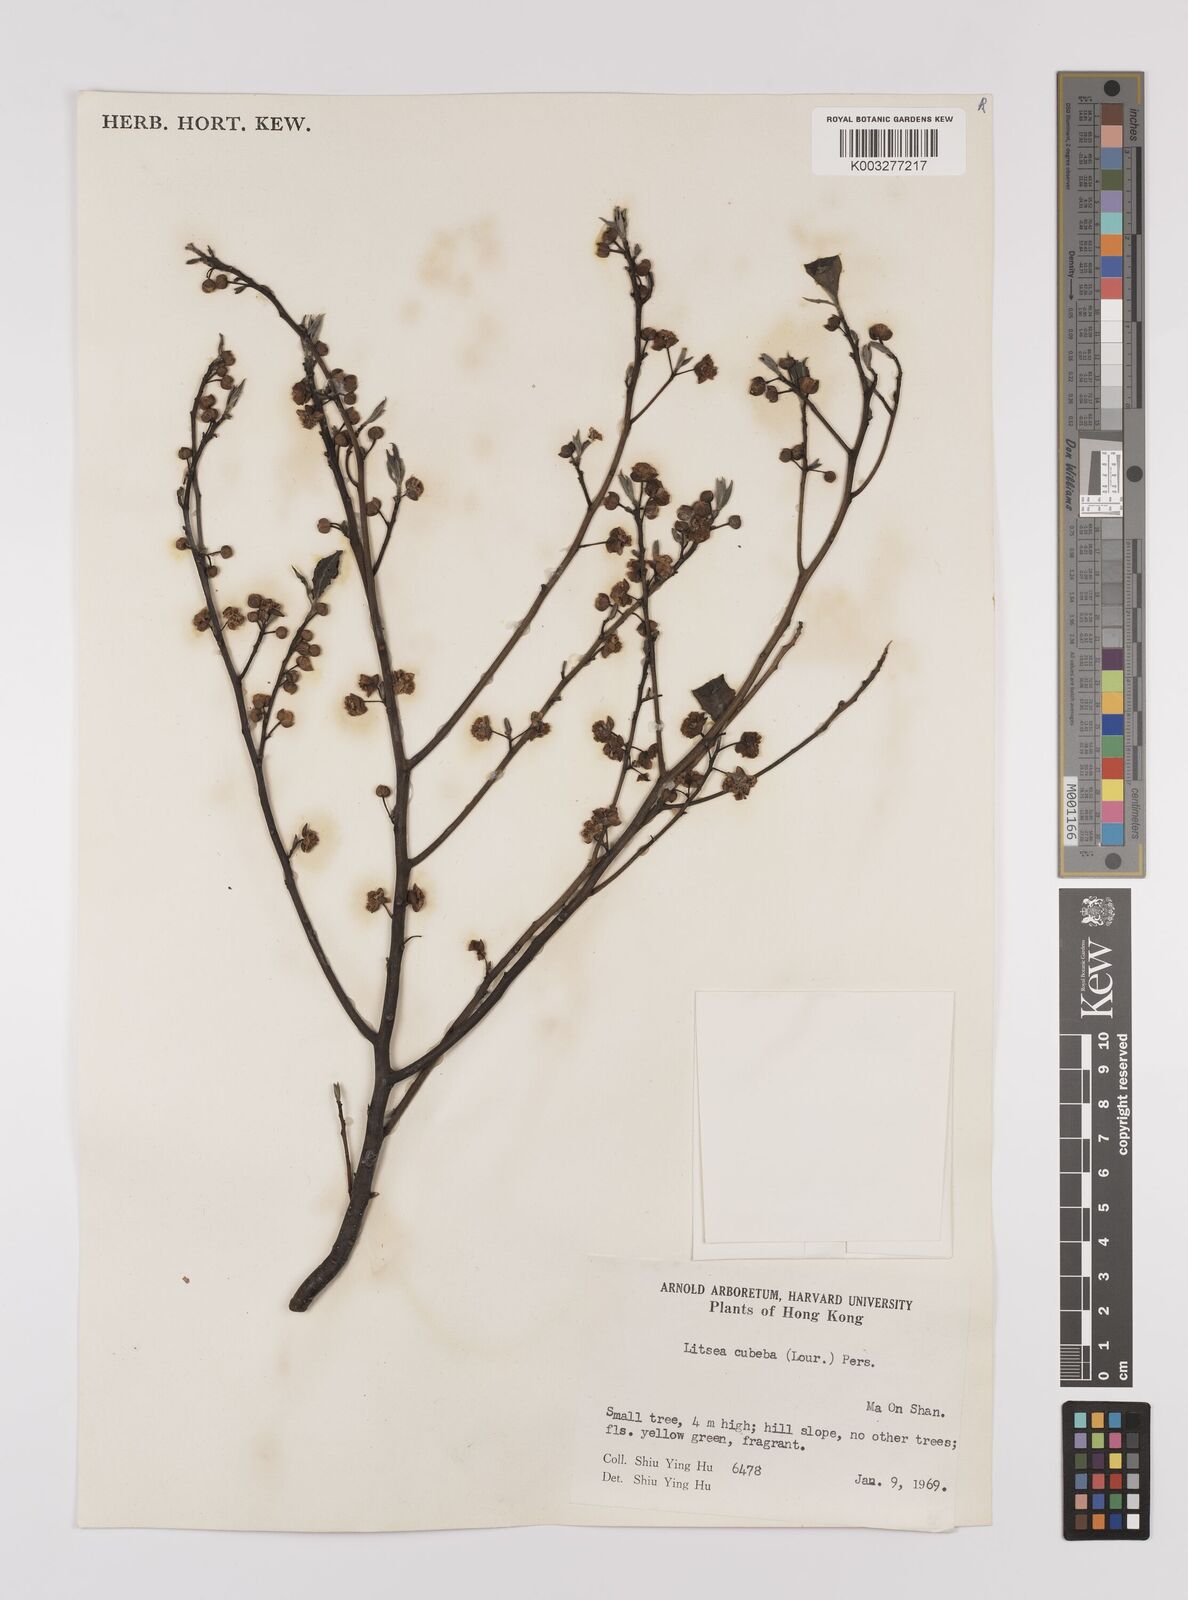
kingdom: Plantae
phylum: Tracheophyta
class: Magnoliopsida
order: Laurales
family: Lauraceae
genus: Litsea
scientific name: Litsea cubeba
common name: Mountain-pepper
